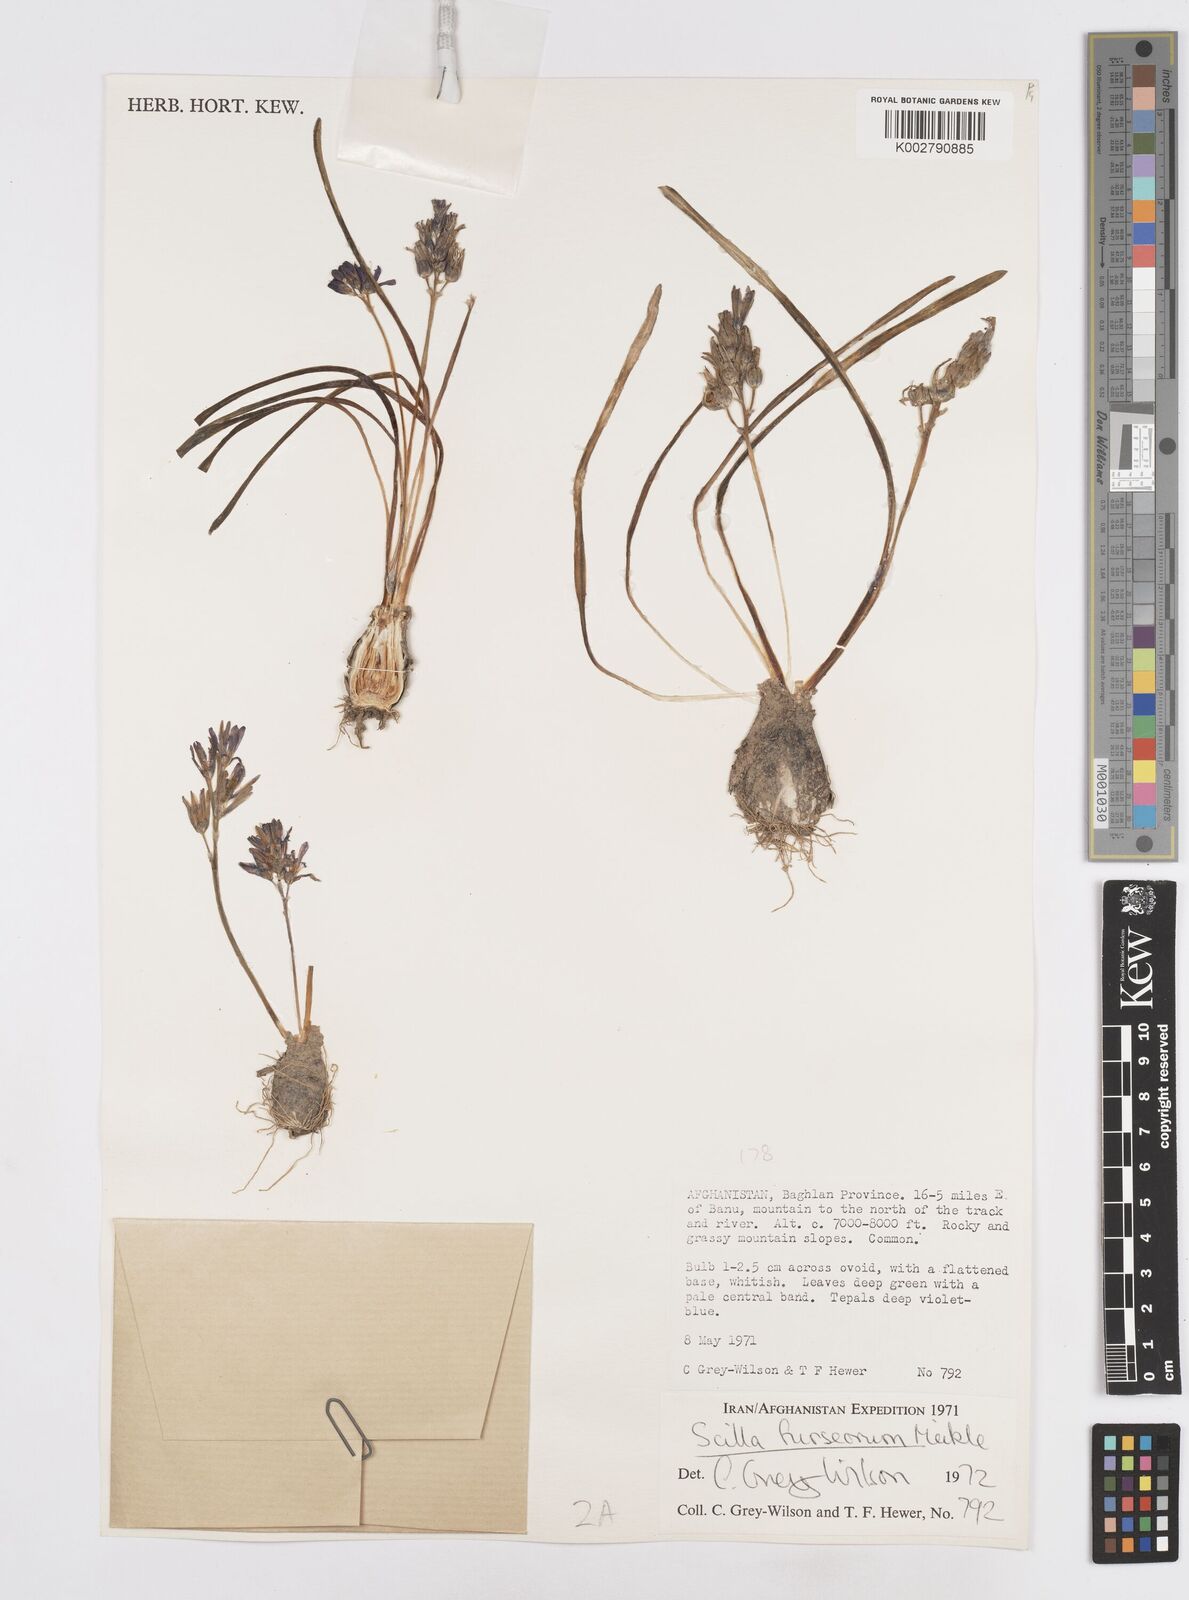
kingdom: Plantae
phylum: Tracheophyta
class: Liliopsida
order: Asparagales
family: Asparagaceae
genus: Fessia
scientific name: Fessia furseorum
